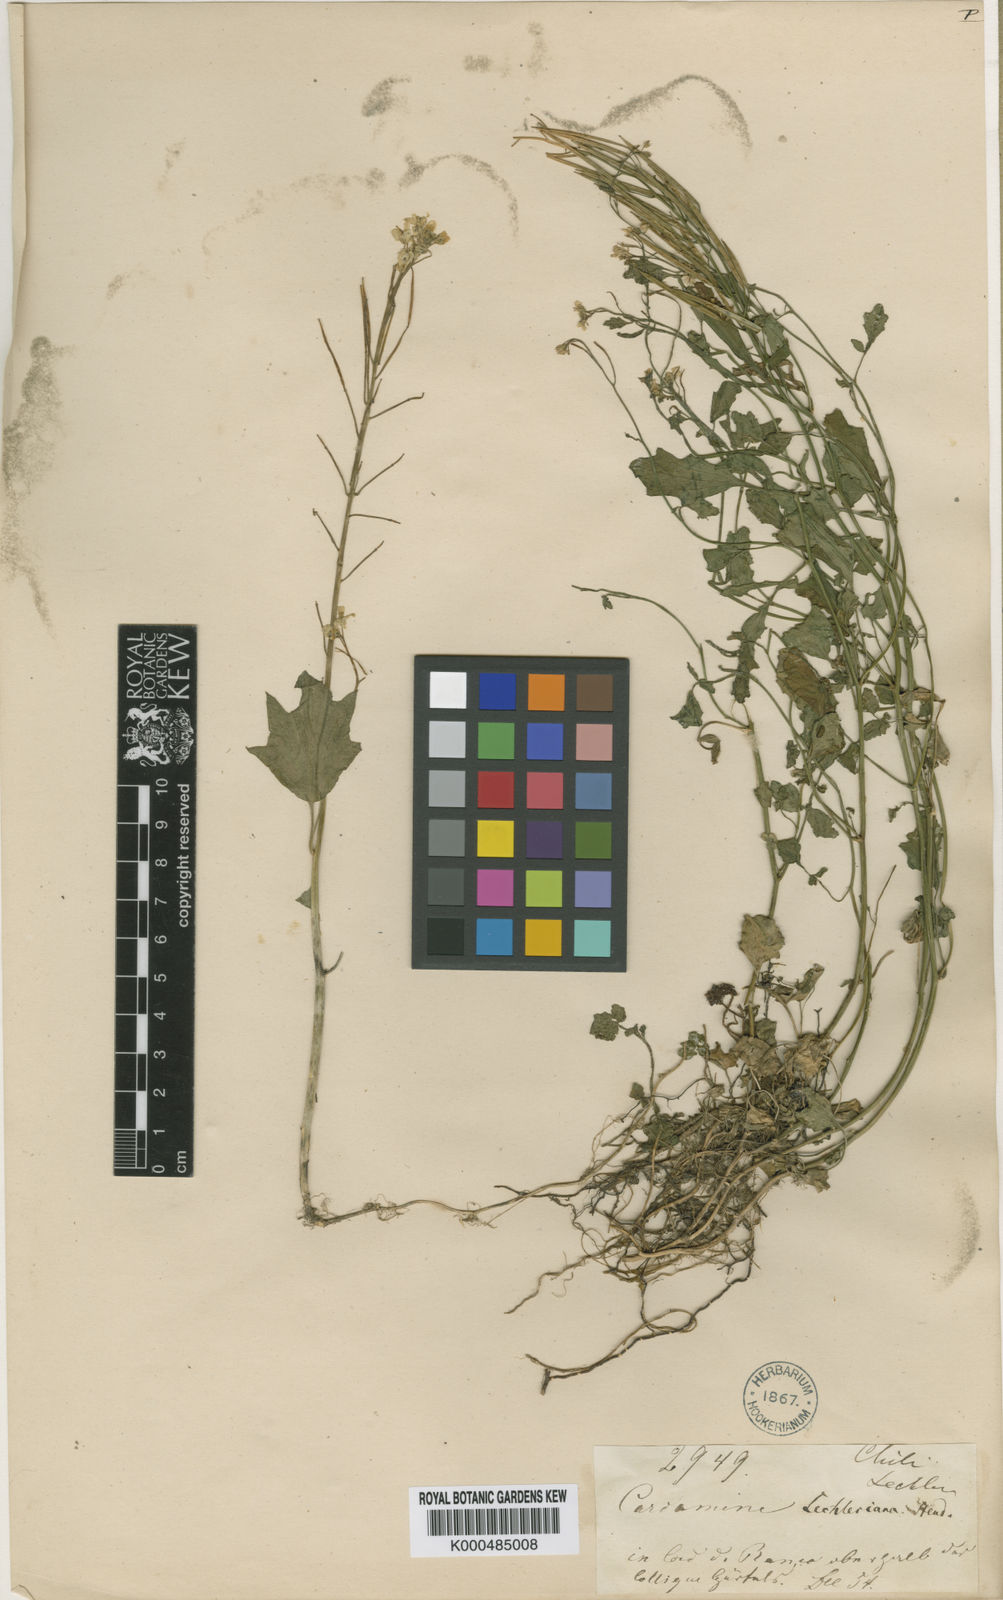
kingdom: Plantae
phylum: Tracheophyta
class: Magnoliopsida
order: Brassicales
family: Brassicaceae
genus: Cardamine
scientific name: Cardamine chilensis
